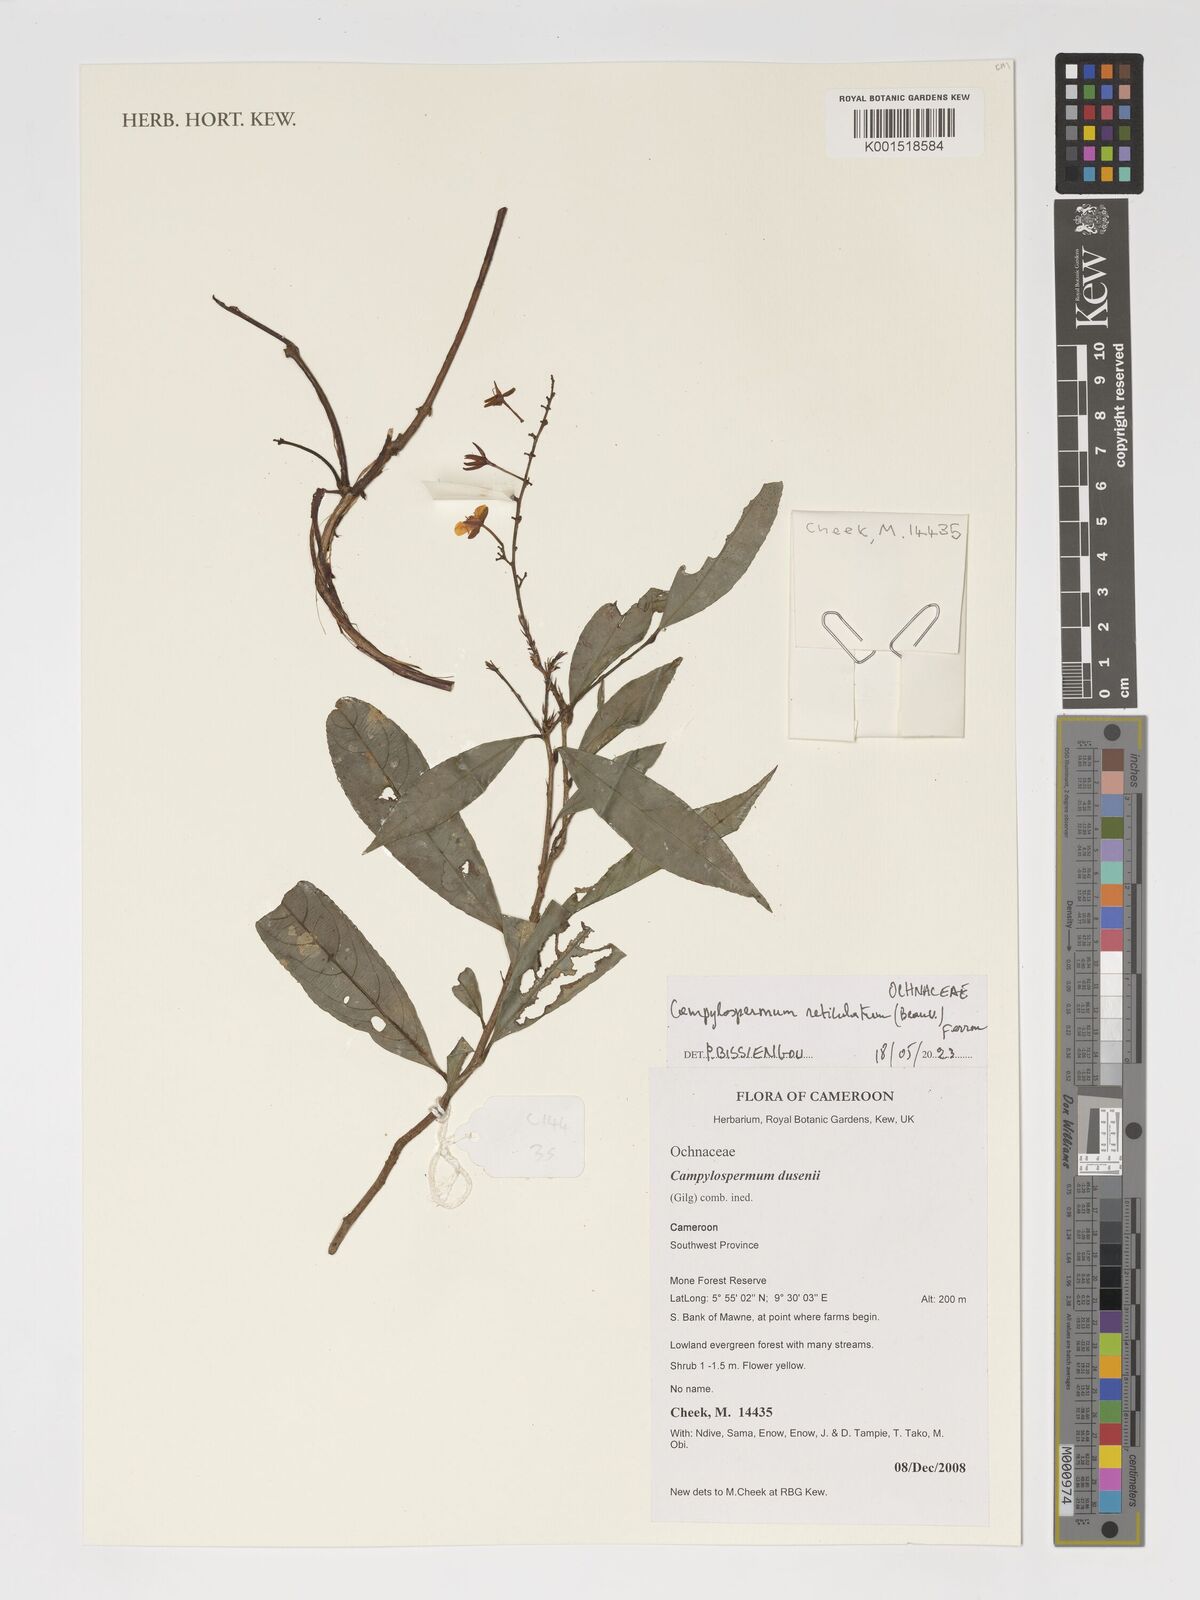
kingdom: Plantae
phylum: Tracheophyta
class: Magnoliopsida
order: Malpighiales
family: Ochnaceae
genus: Campylospermum
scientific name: Campylospermum reticulatum
